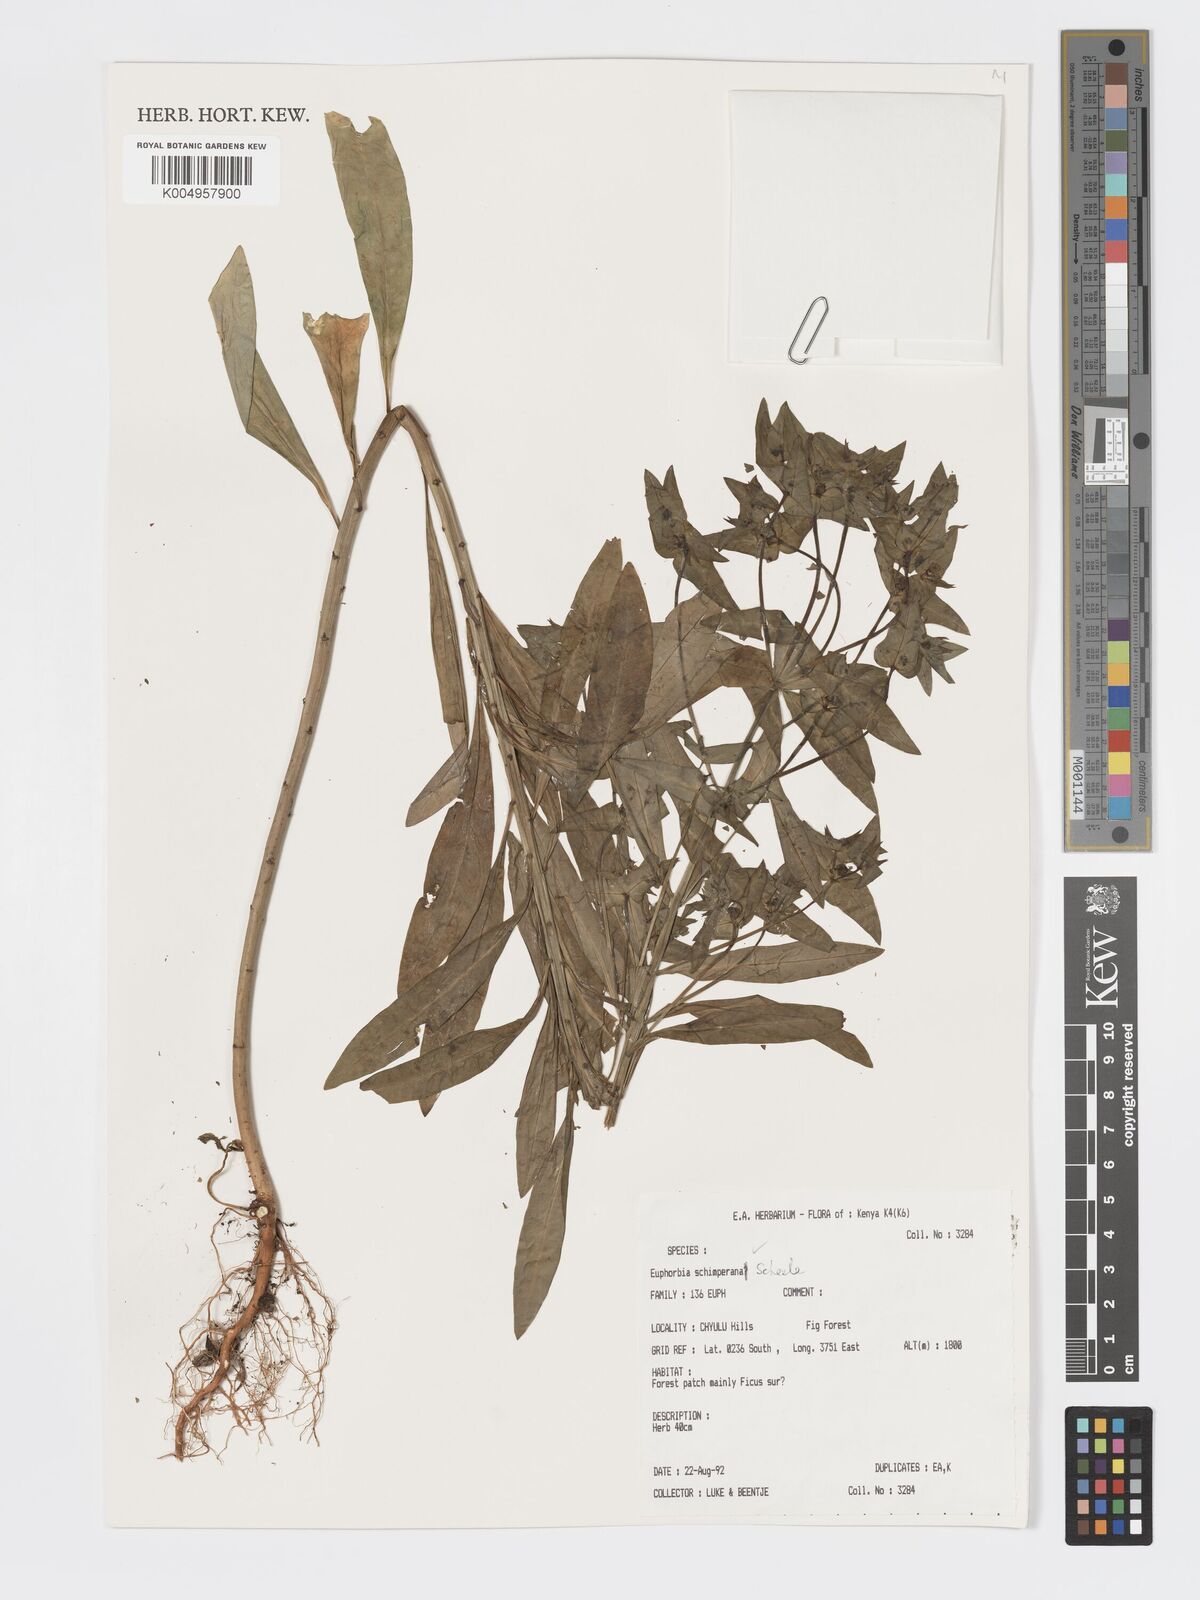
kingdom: Plantae
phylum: Tracheophyta
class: Magnoliopsida
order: Malpighiales
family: Euphorbiaceae
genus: Euphorbia
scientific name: Euphorbia schimperiana
